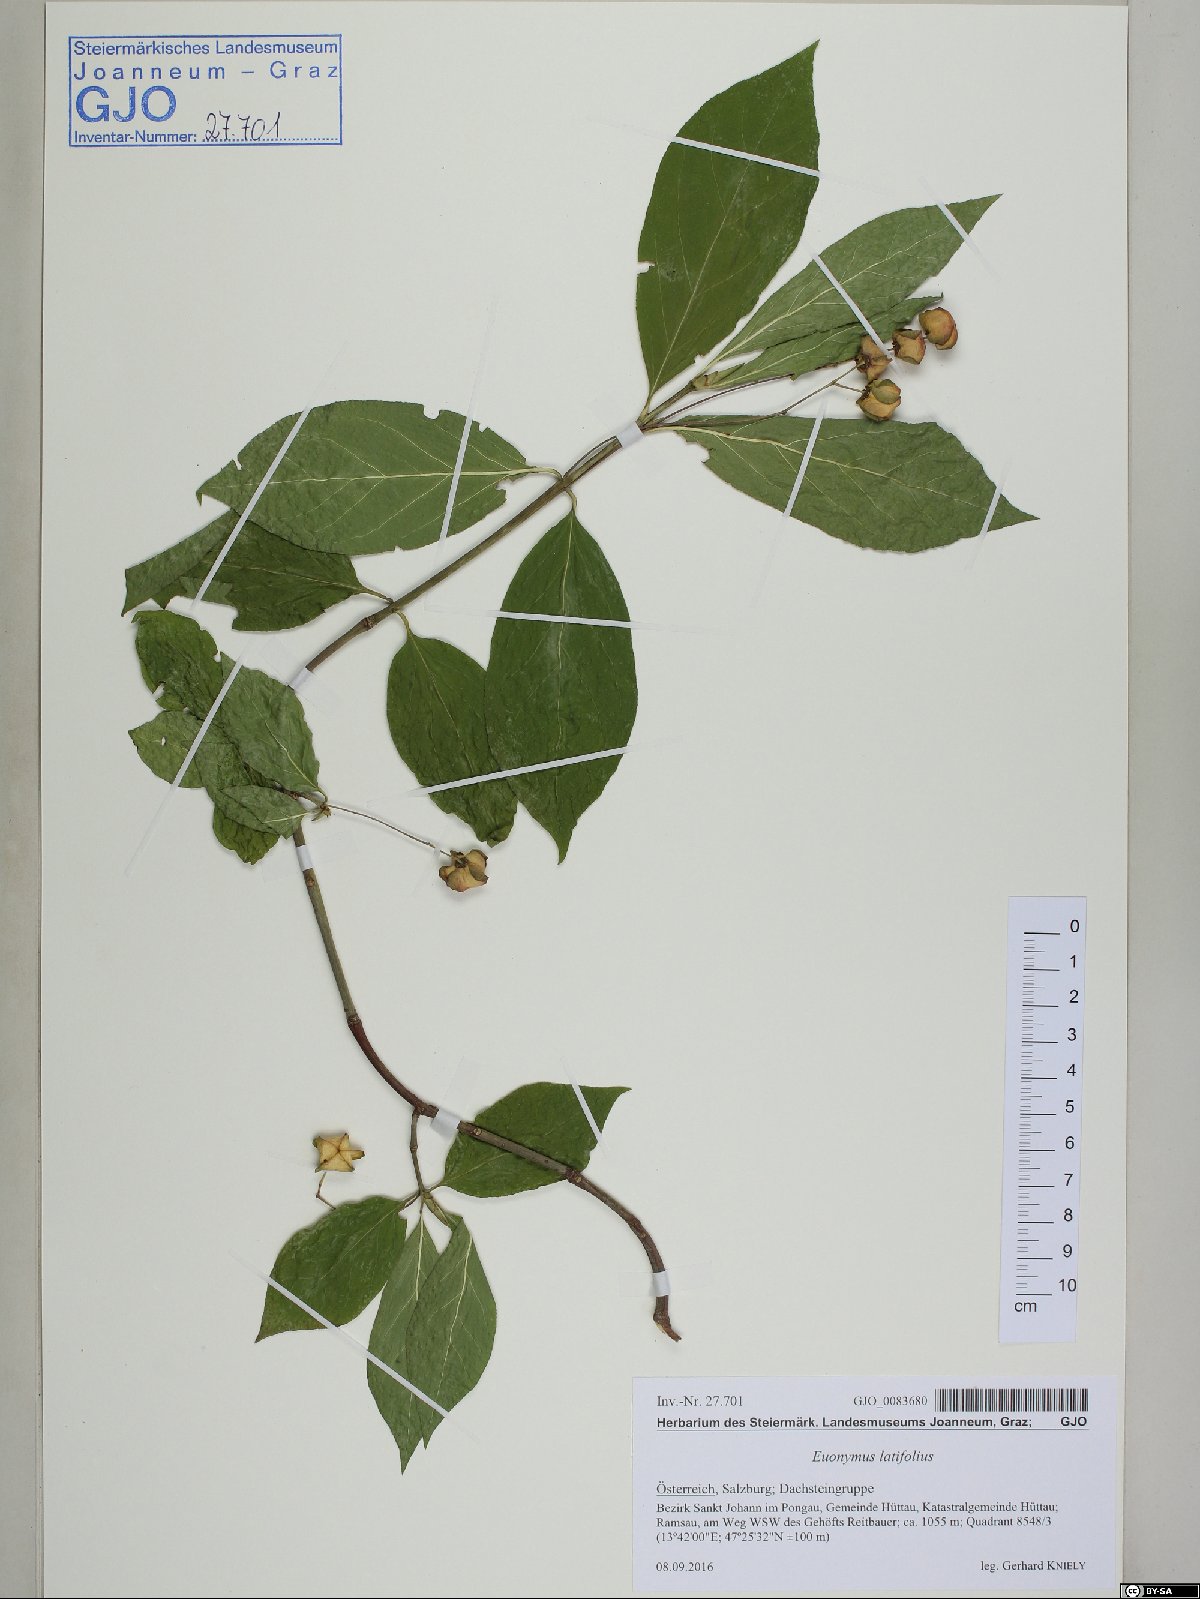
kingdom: Plantae
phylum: Tracheophyta
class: Magnoliopsida
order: Celastrales
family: Celastraceae
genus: Euonymus
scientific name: Euonymus latifolius
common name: Large-leaved spindle
